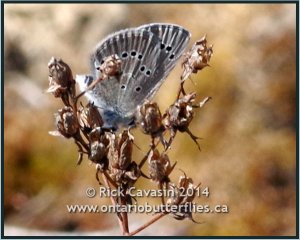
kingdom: Animalia
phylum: Arthropoda
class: Insecta
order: Lepidoptera
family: Lycaenidae
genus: Glaucopsyche
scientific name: Glaucopsyche lygdamus
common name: Silvery Blue
